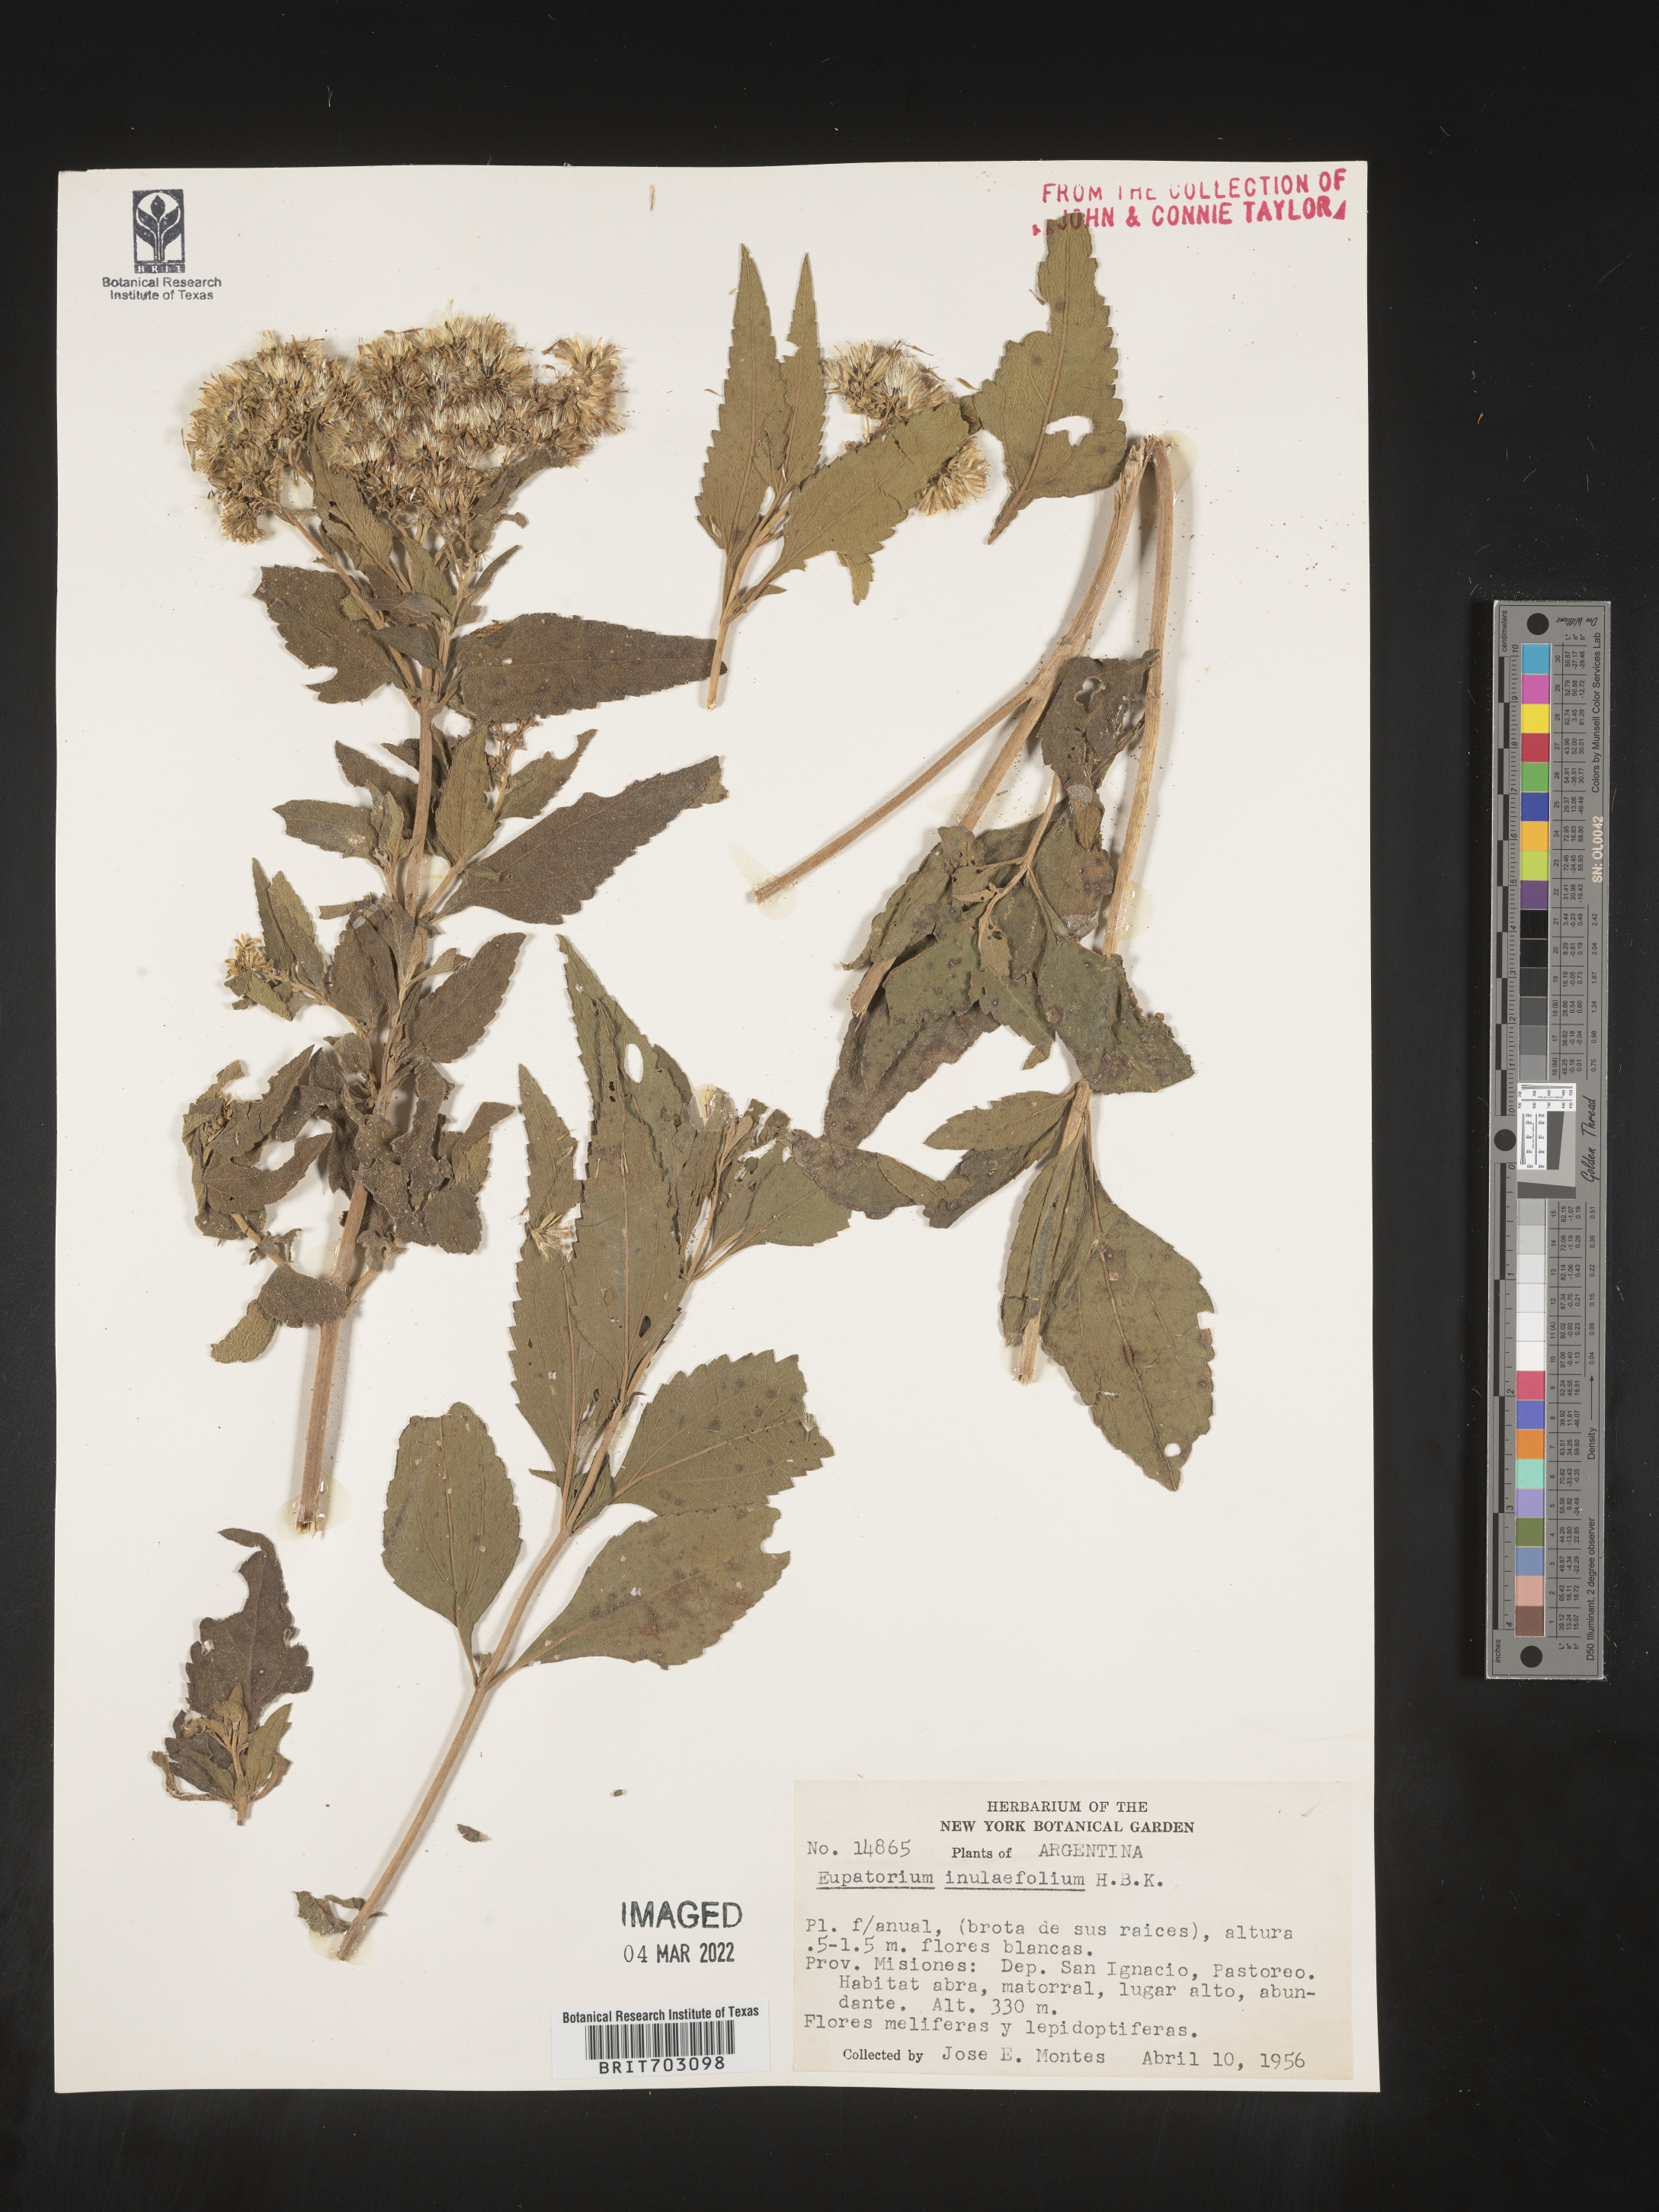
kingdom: Plantae
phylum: Tracheophyta
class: Magnoliopsida
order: Asterales
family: Asteraceae
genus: Eupatorium
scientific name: Eupatorium
